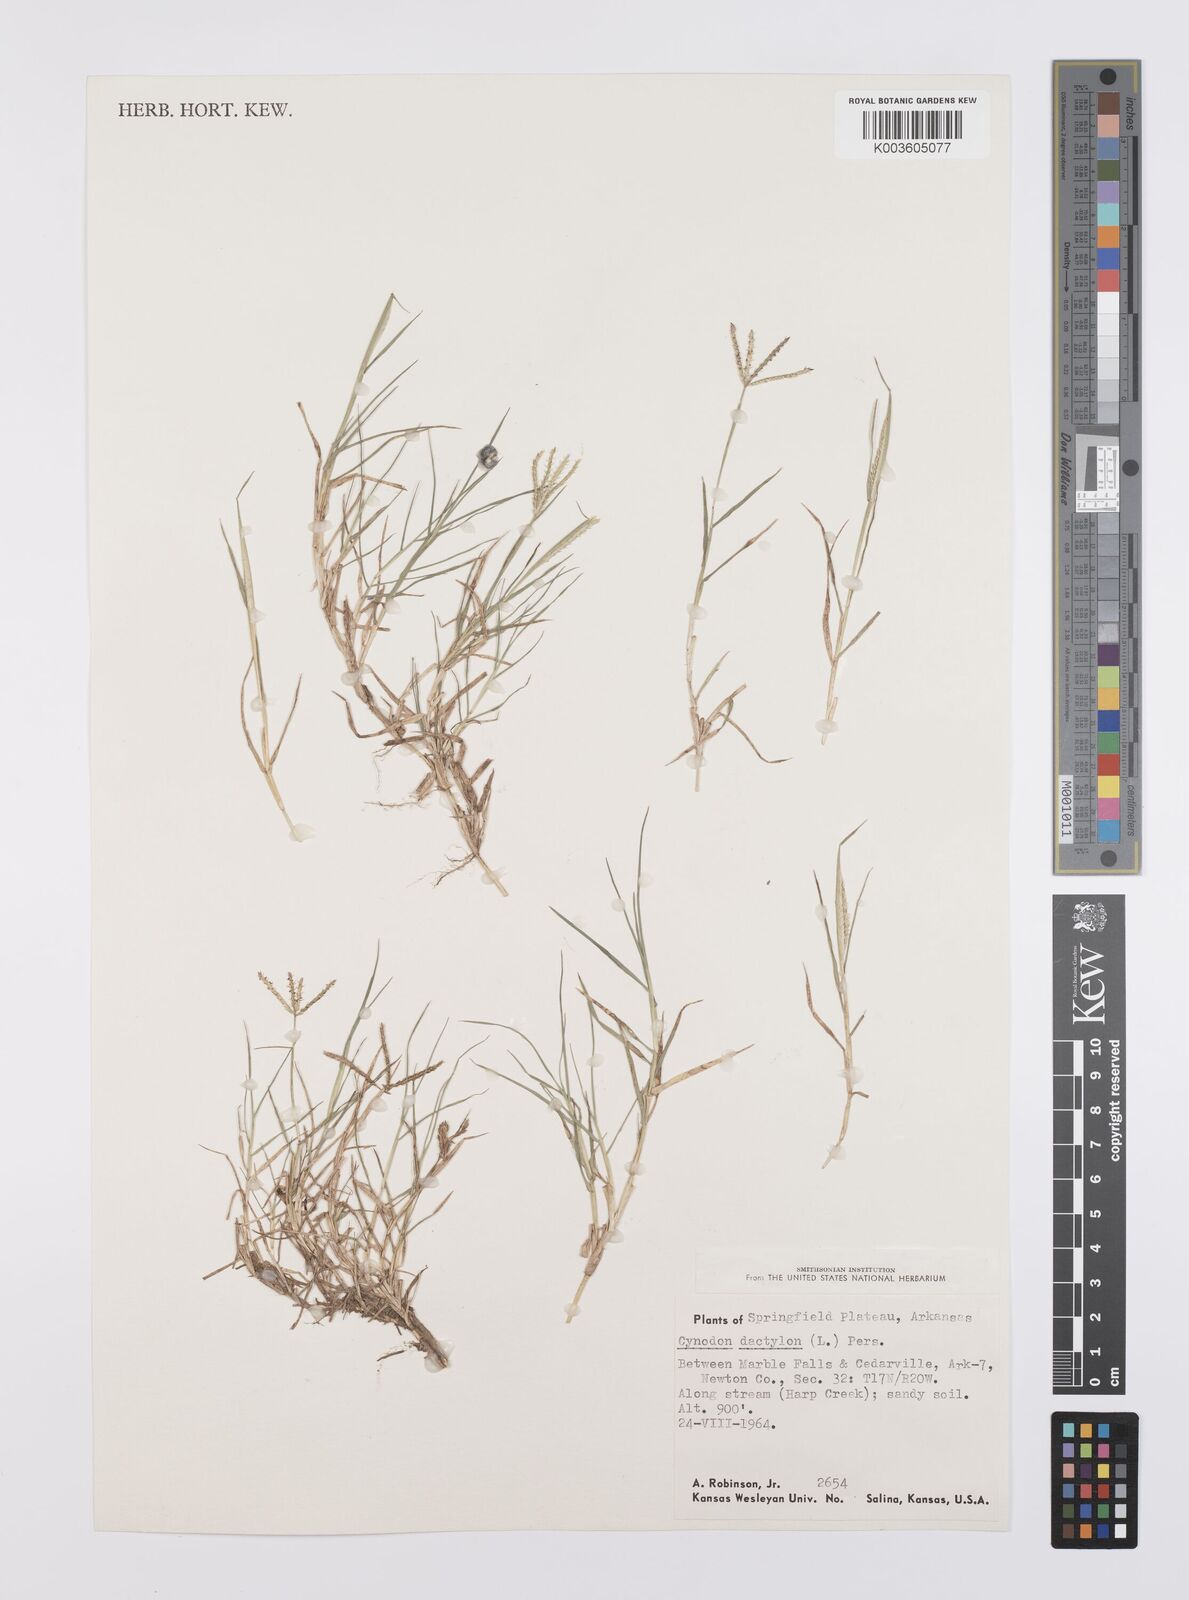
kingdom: Plantae
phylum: Tracheophyta
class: Liliopsida
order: Poales
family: Poaceae
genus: Cynodon
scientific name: Cynodon dactylon
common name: Bermuda grass
